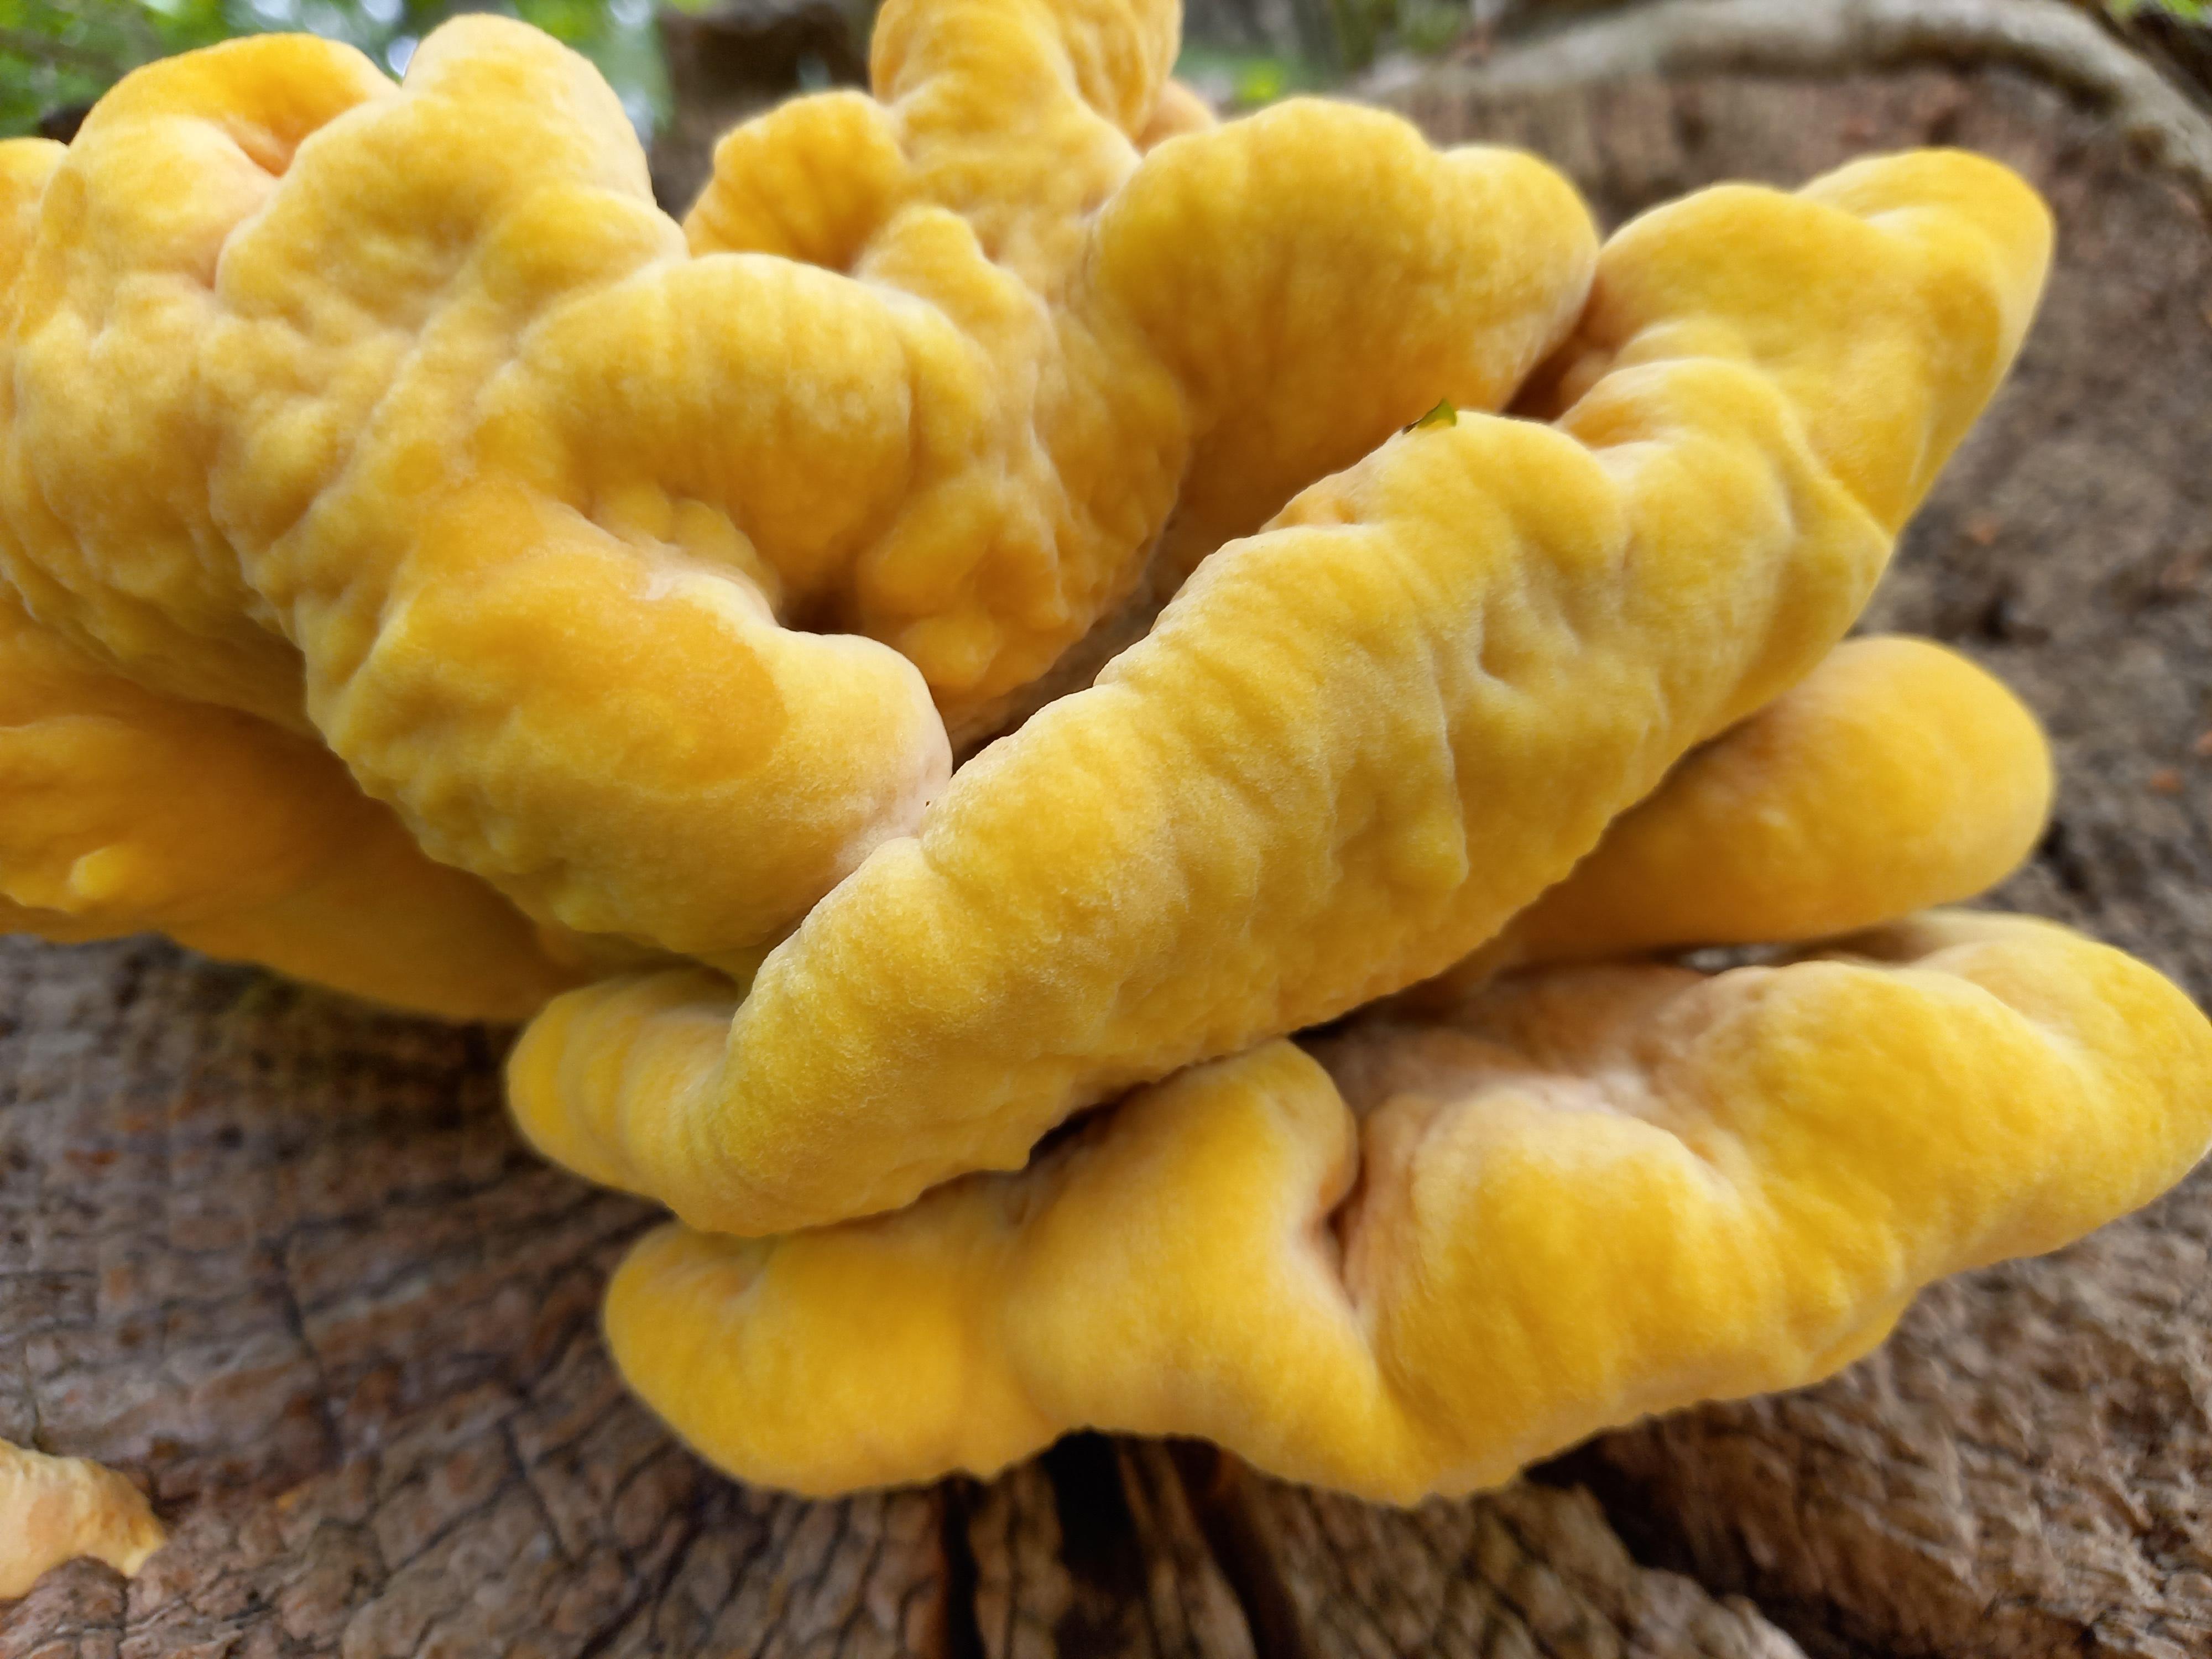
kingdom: Fungi
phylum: Basidiomycota
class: Agaricomycetes
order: Polyporales
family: Laetiporaceae
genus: Laetiporus
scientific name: Laetiporus sulphureus
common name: svovlporesvamp
